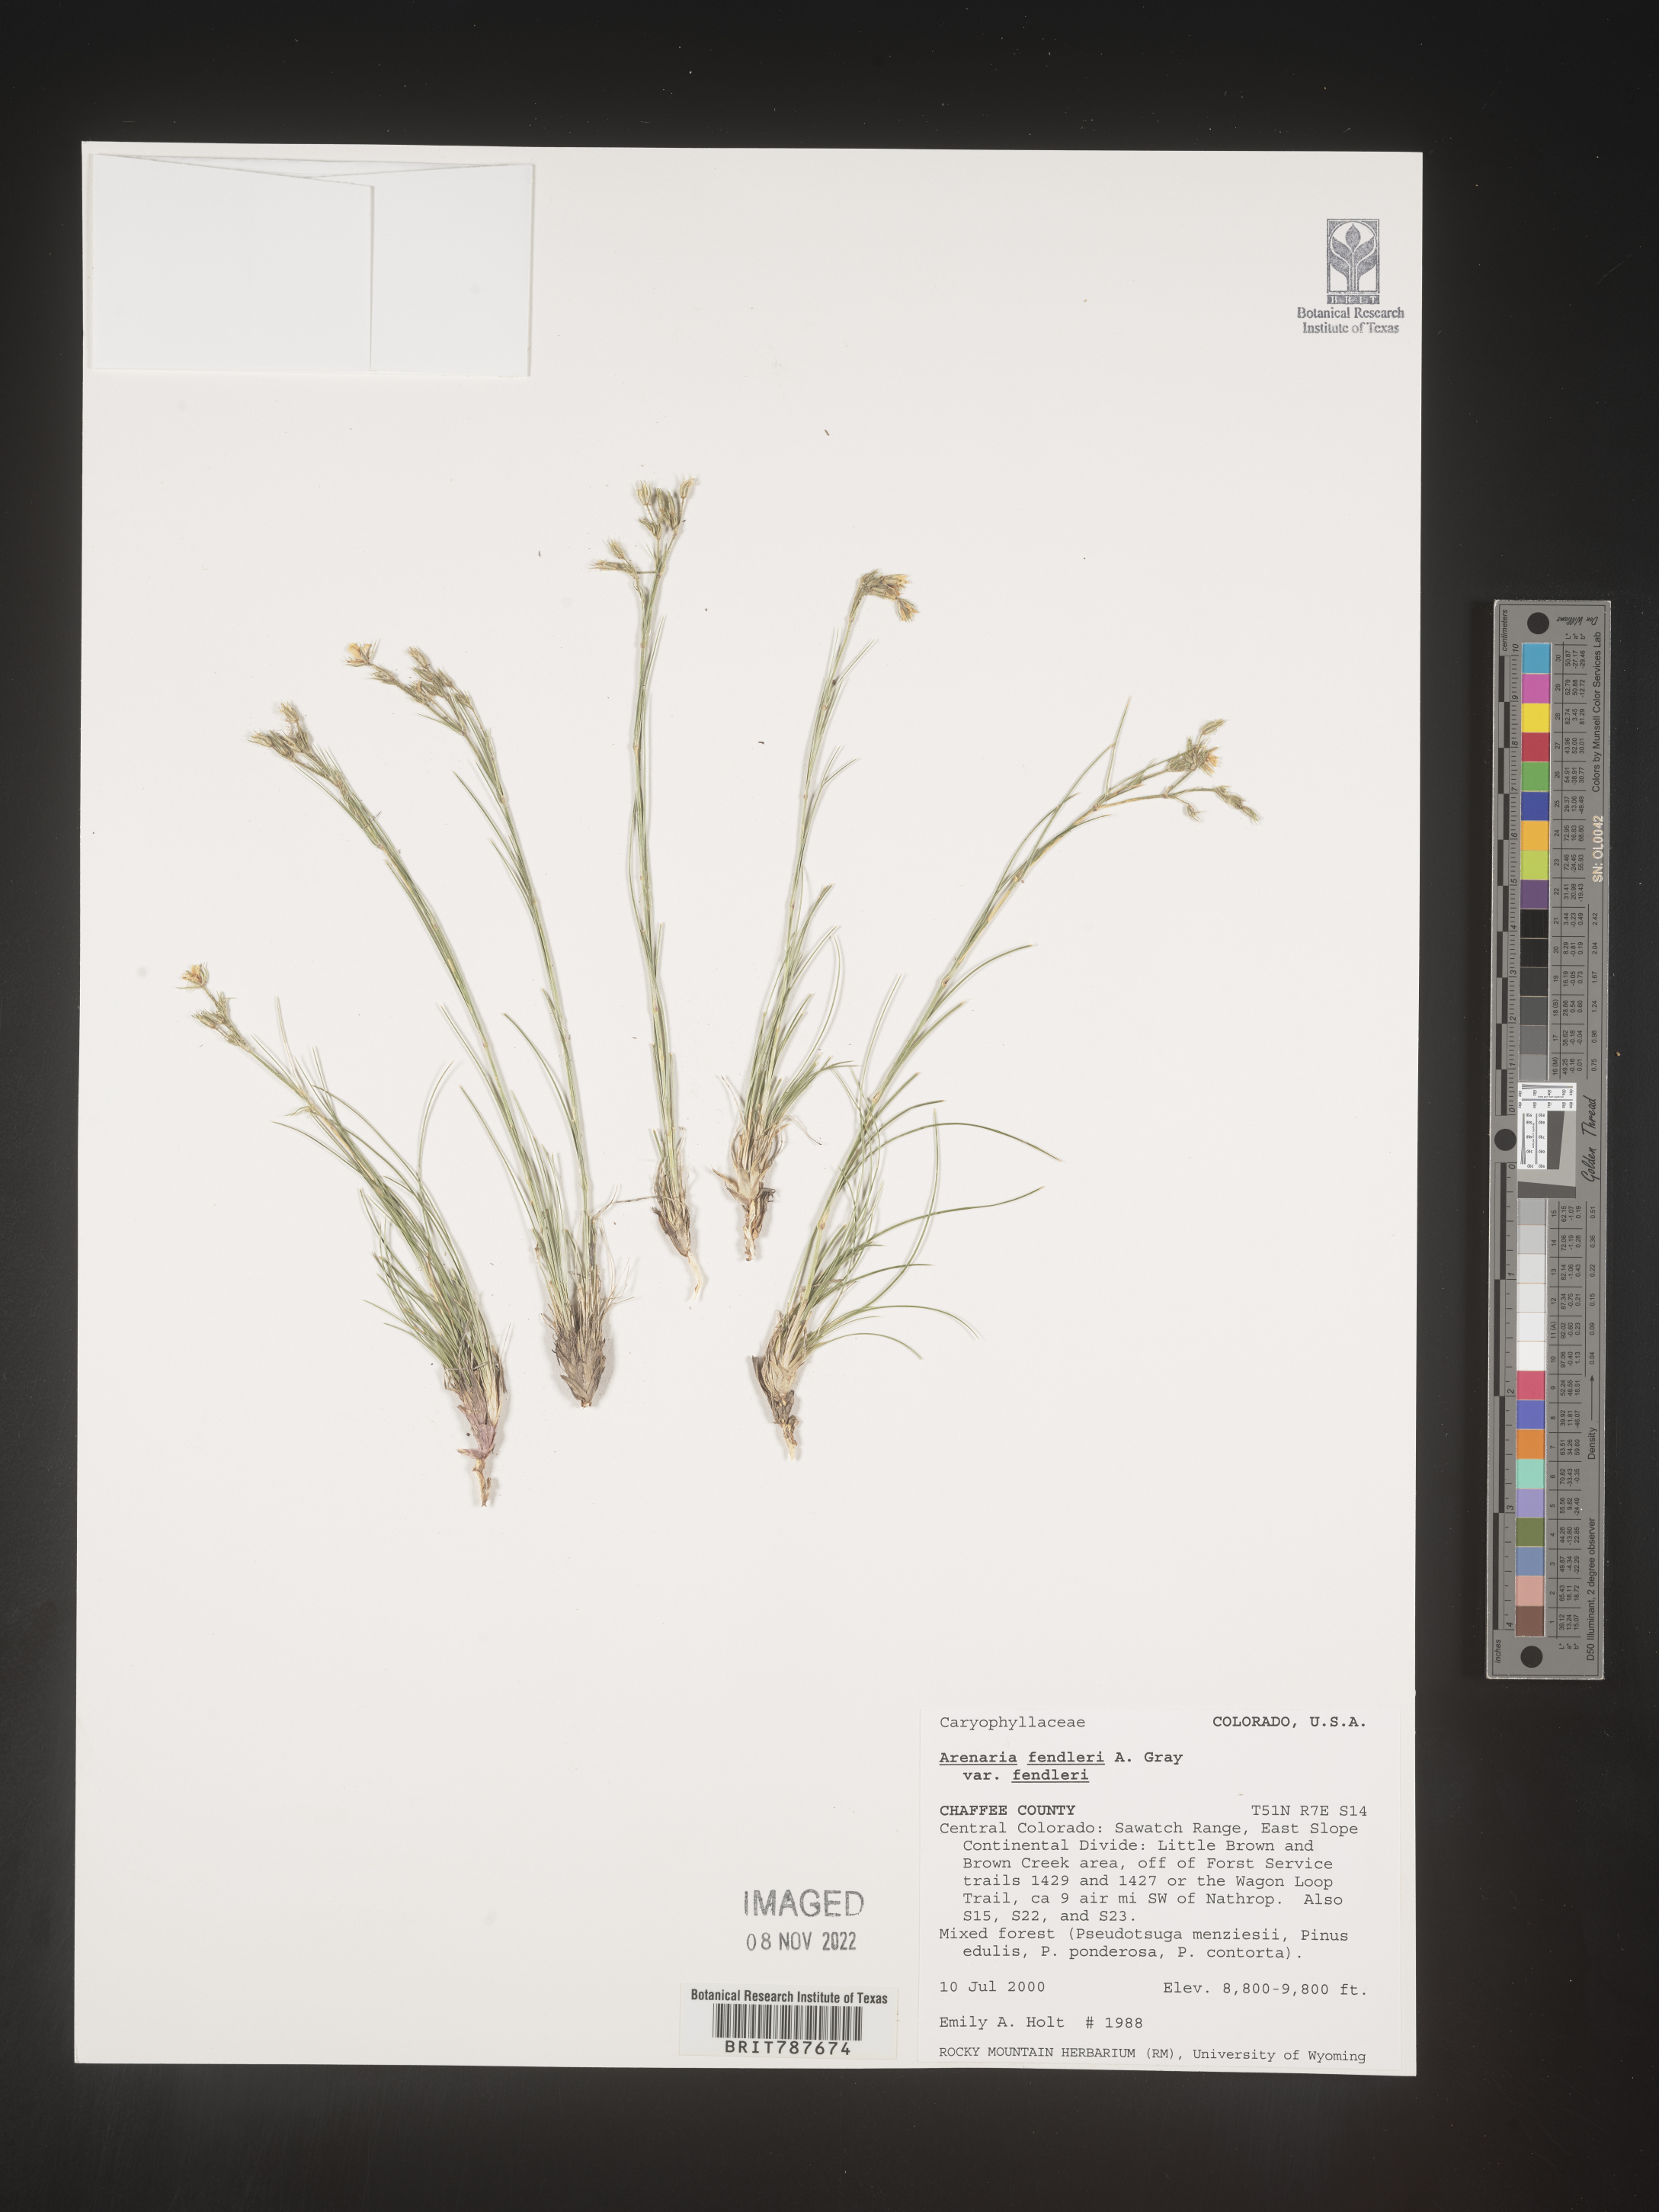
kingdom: Plantae
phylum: Tracheophyta
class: Magnoliopsida
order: Caryophyllales
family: Caryophyllaceae
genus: Arenaria
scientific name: Arenaria
